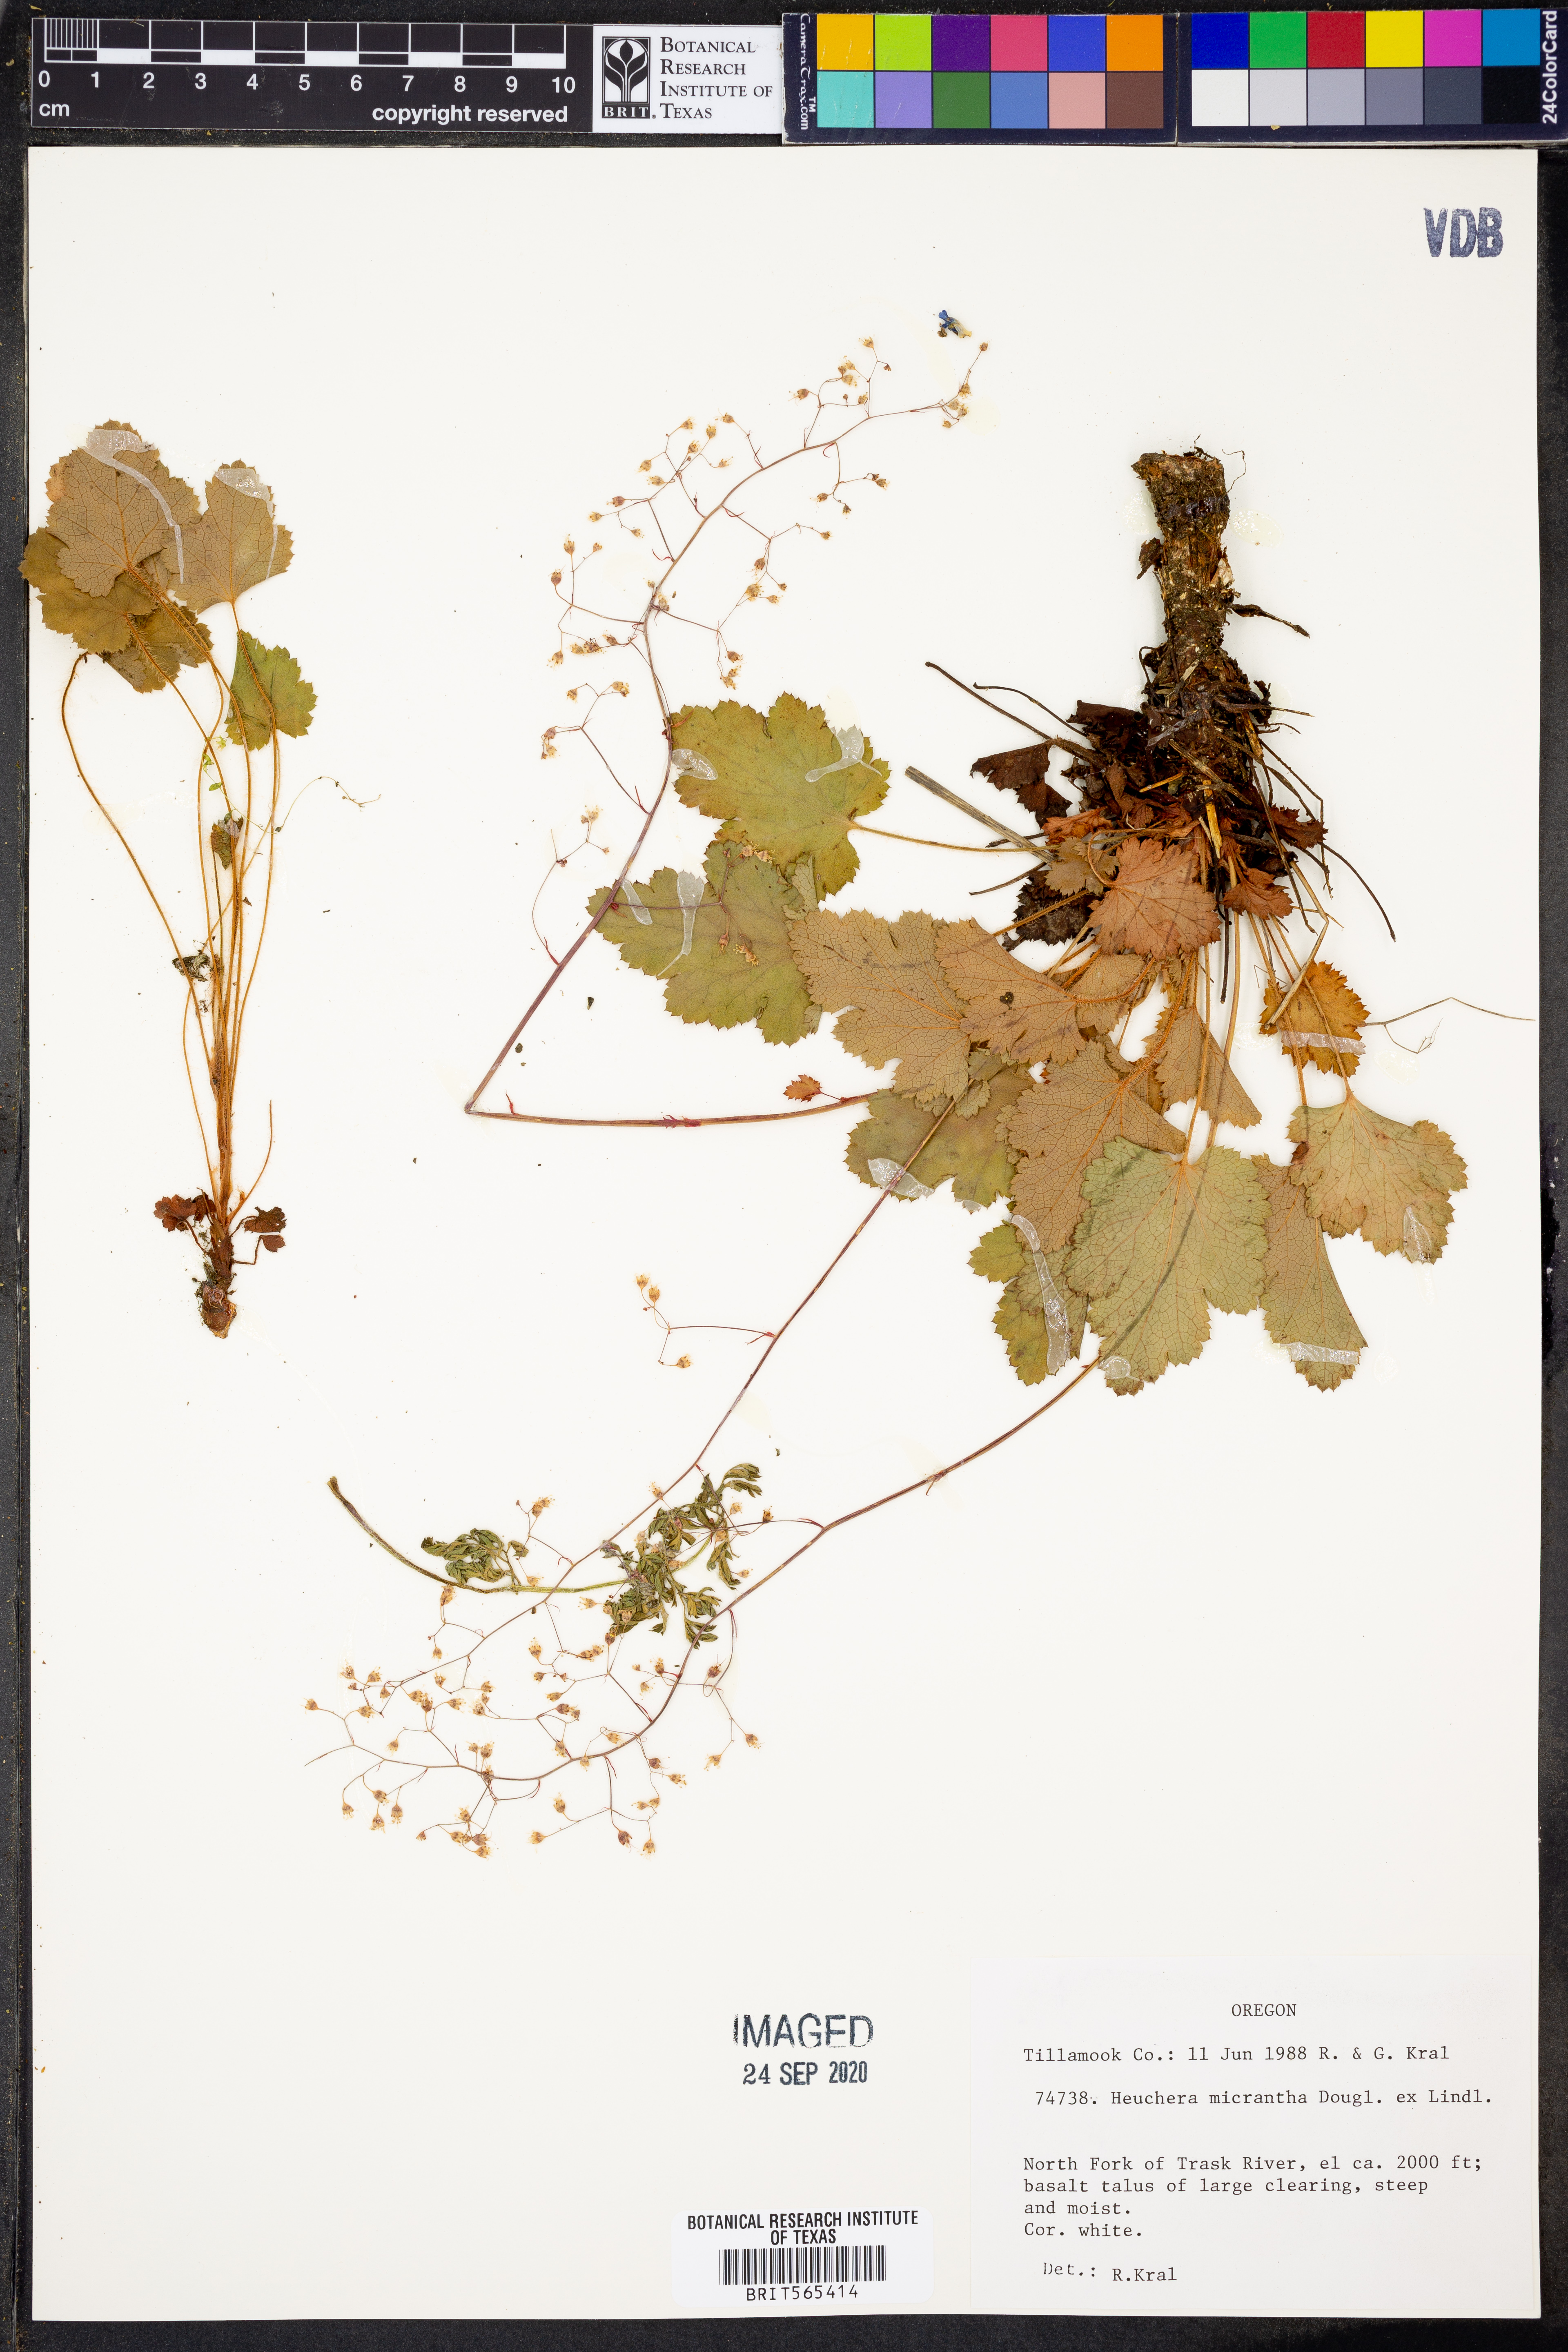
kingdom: Plantae
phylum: Tracheophyta
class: Magnoliopsida
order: Saxifragales
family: Saxifragaceae
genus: Heuchera
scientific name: Heuchera micrantha
